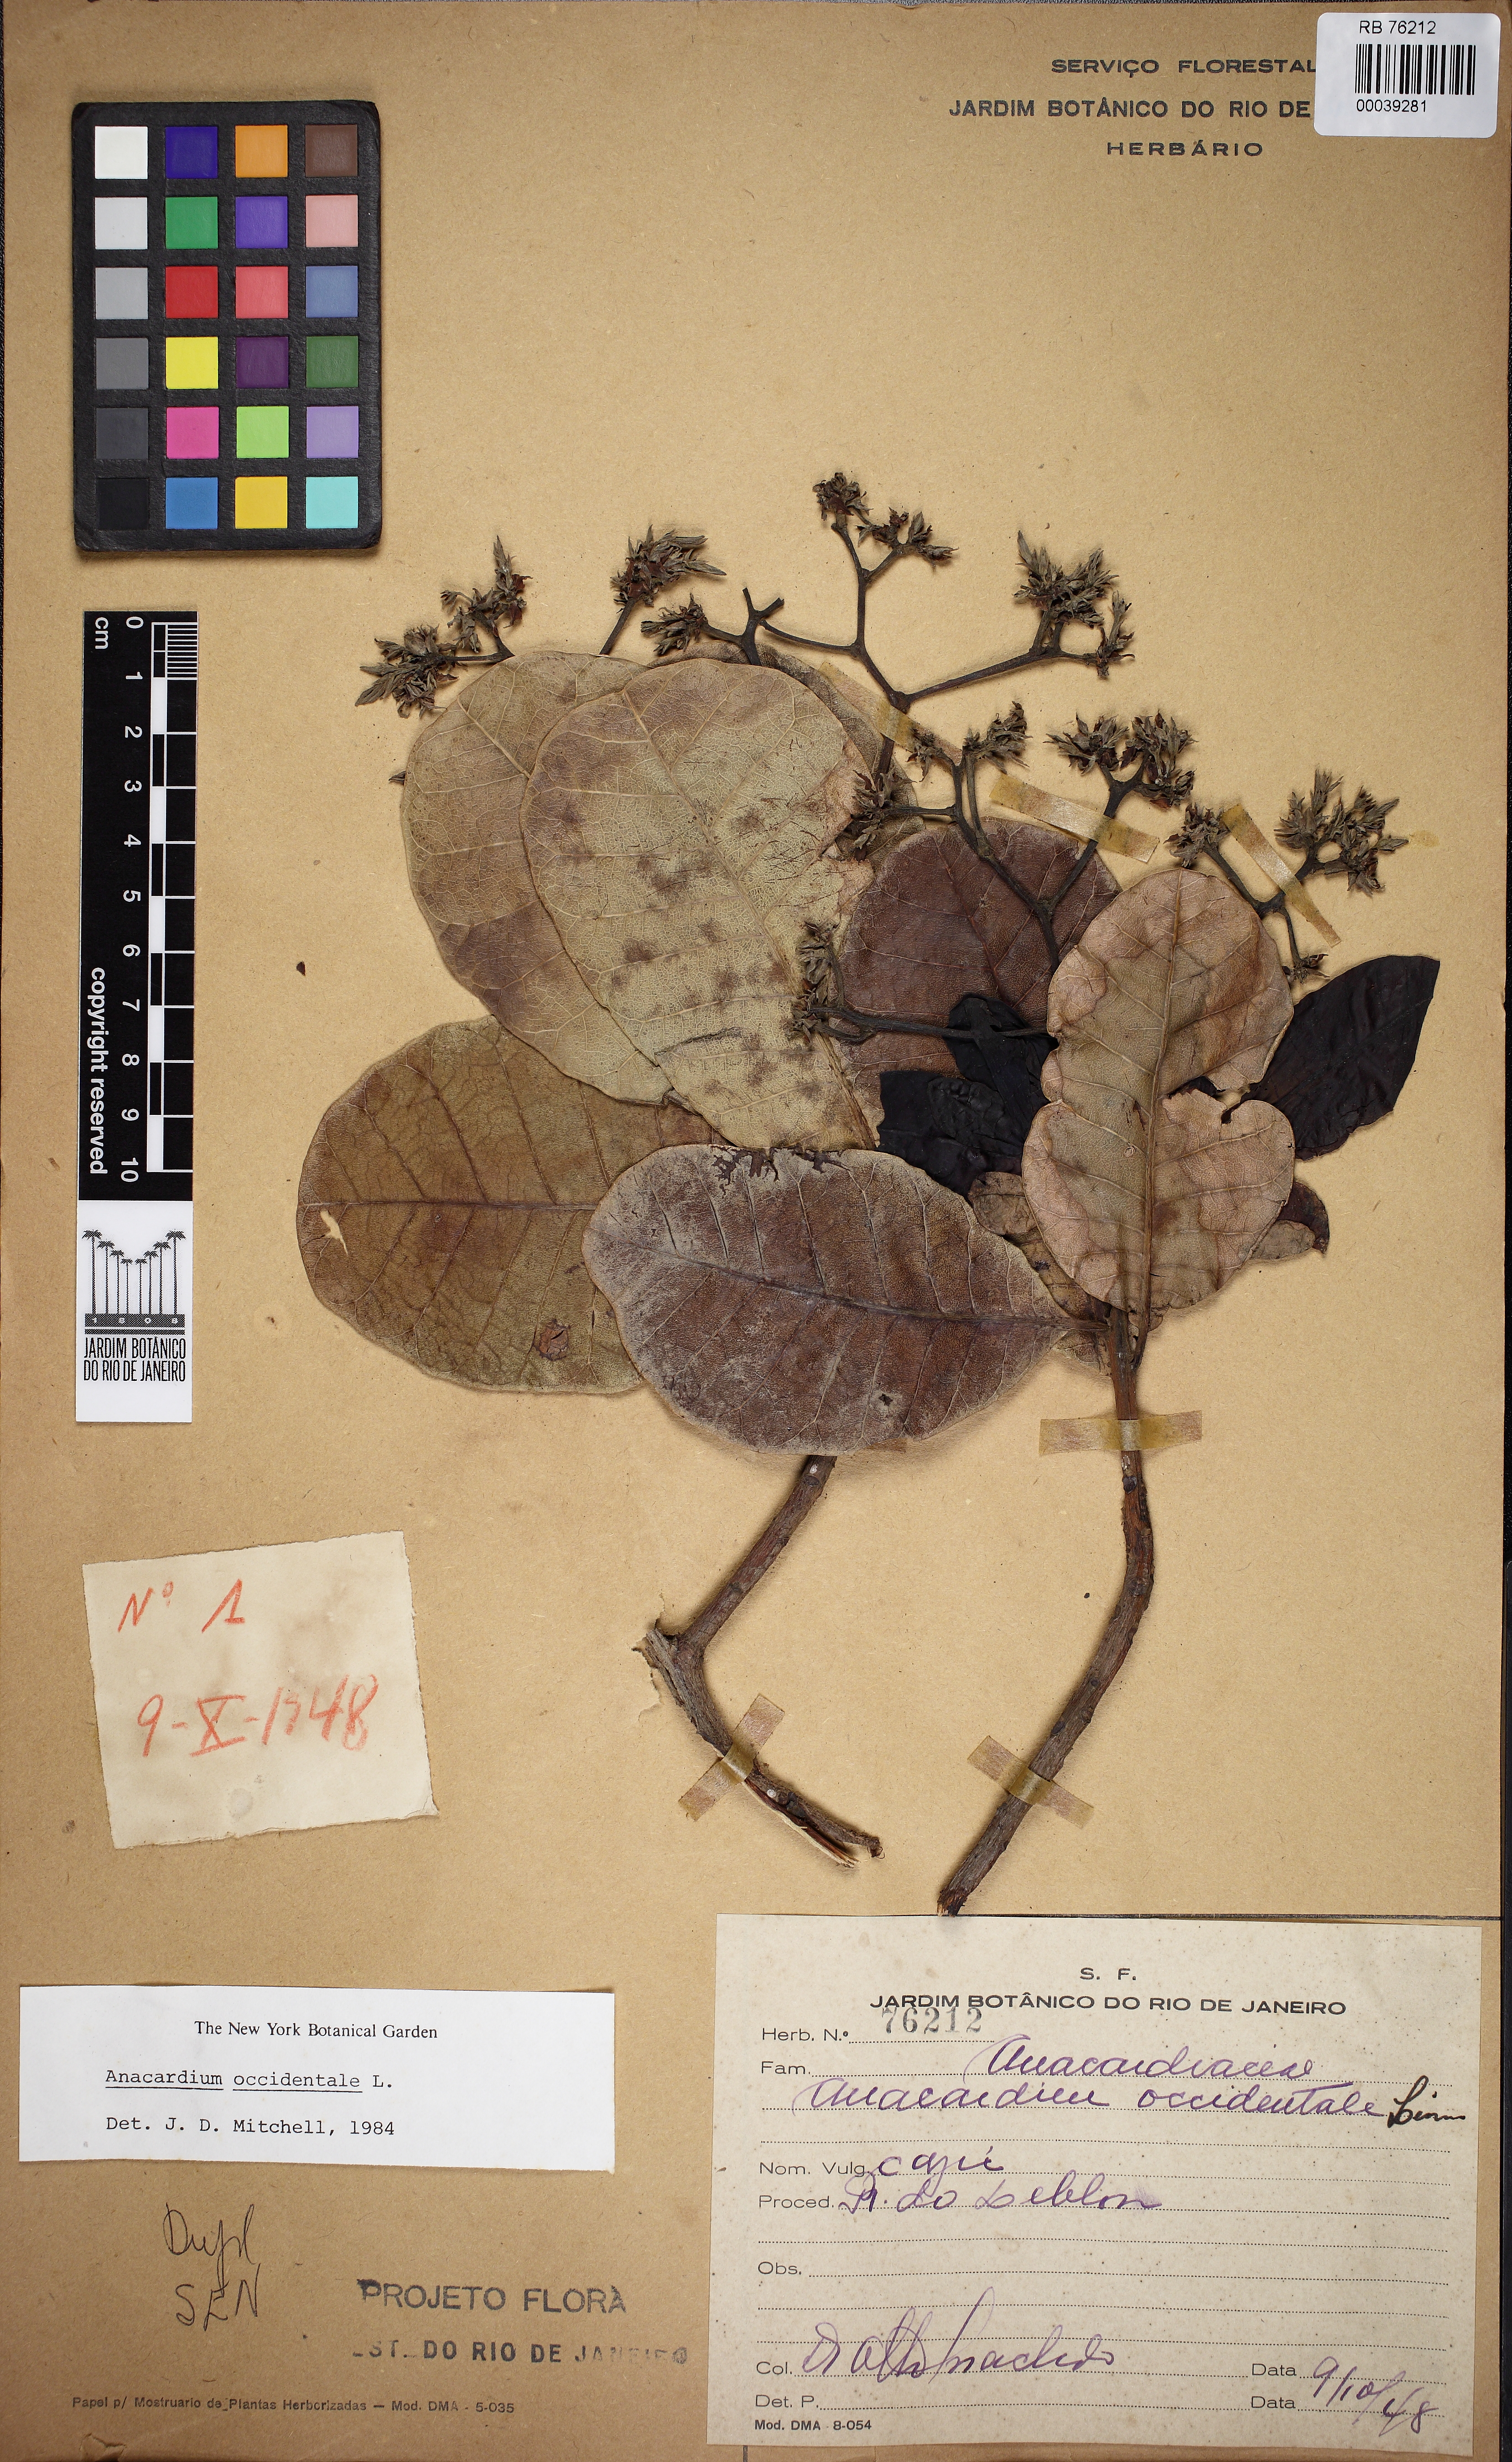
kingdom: Plantae
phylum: Tracheophyta
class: Magnoliopsida
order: Sapindales
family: Anacardiaceae
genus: Anacardium
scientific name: Anacardium occidentale
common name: Cashew
